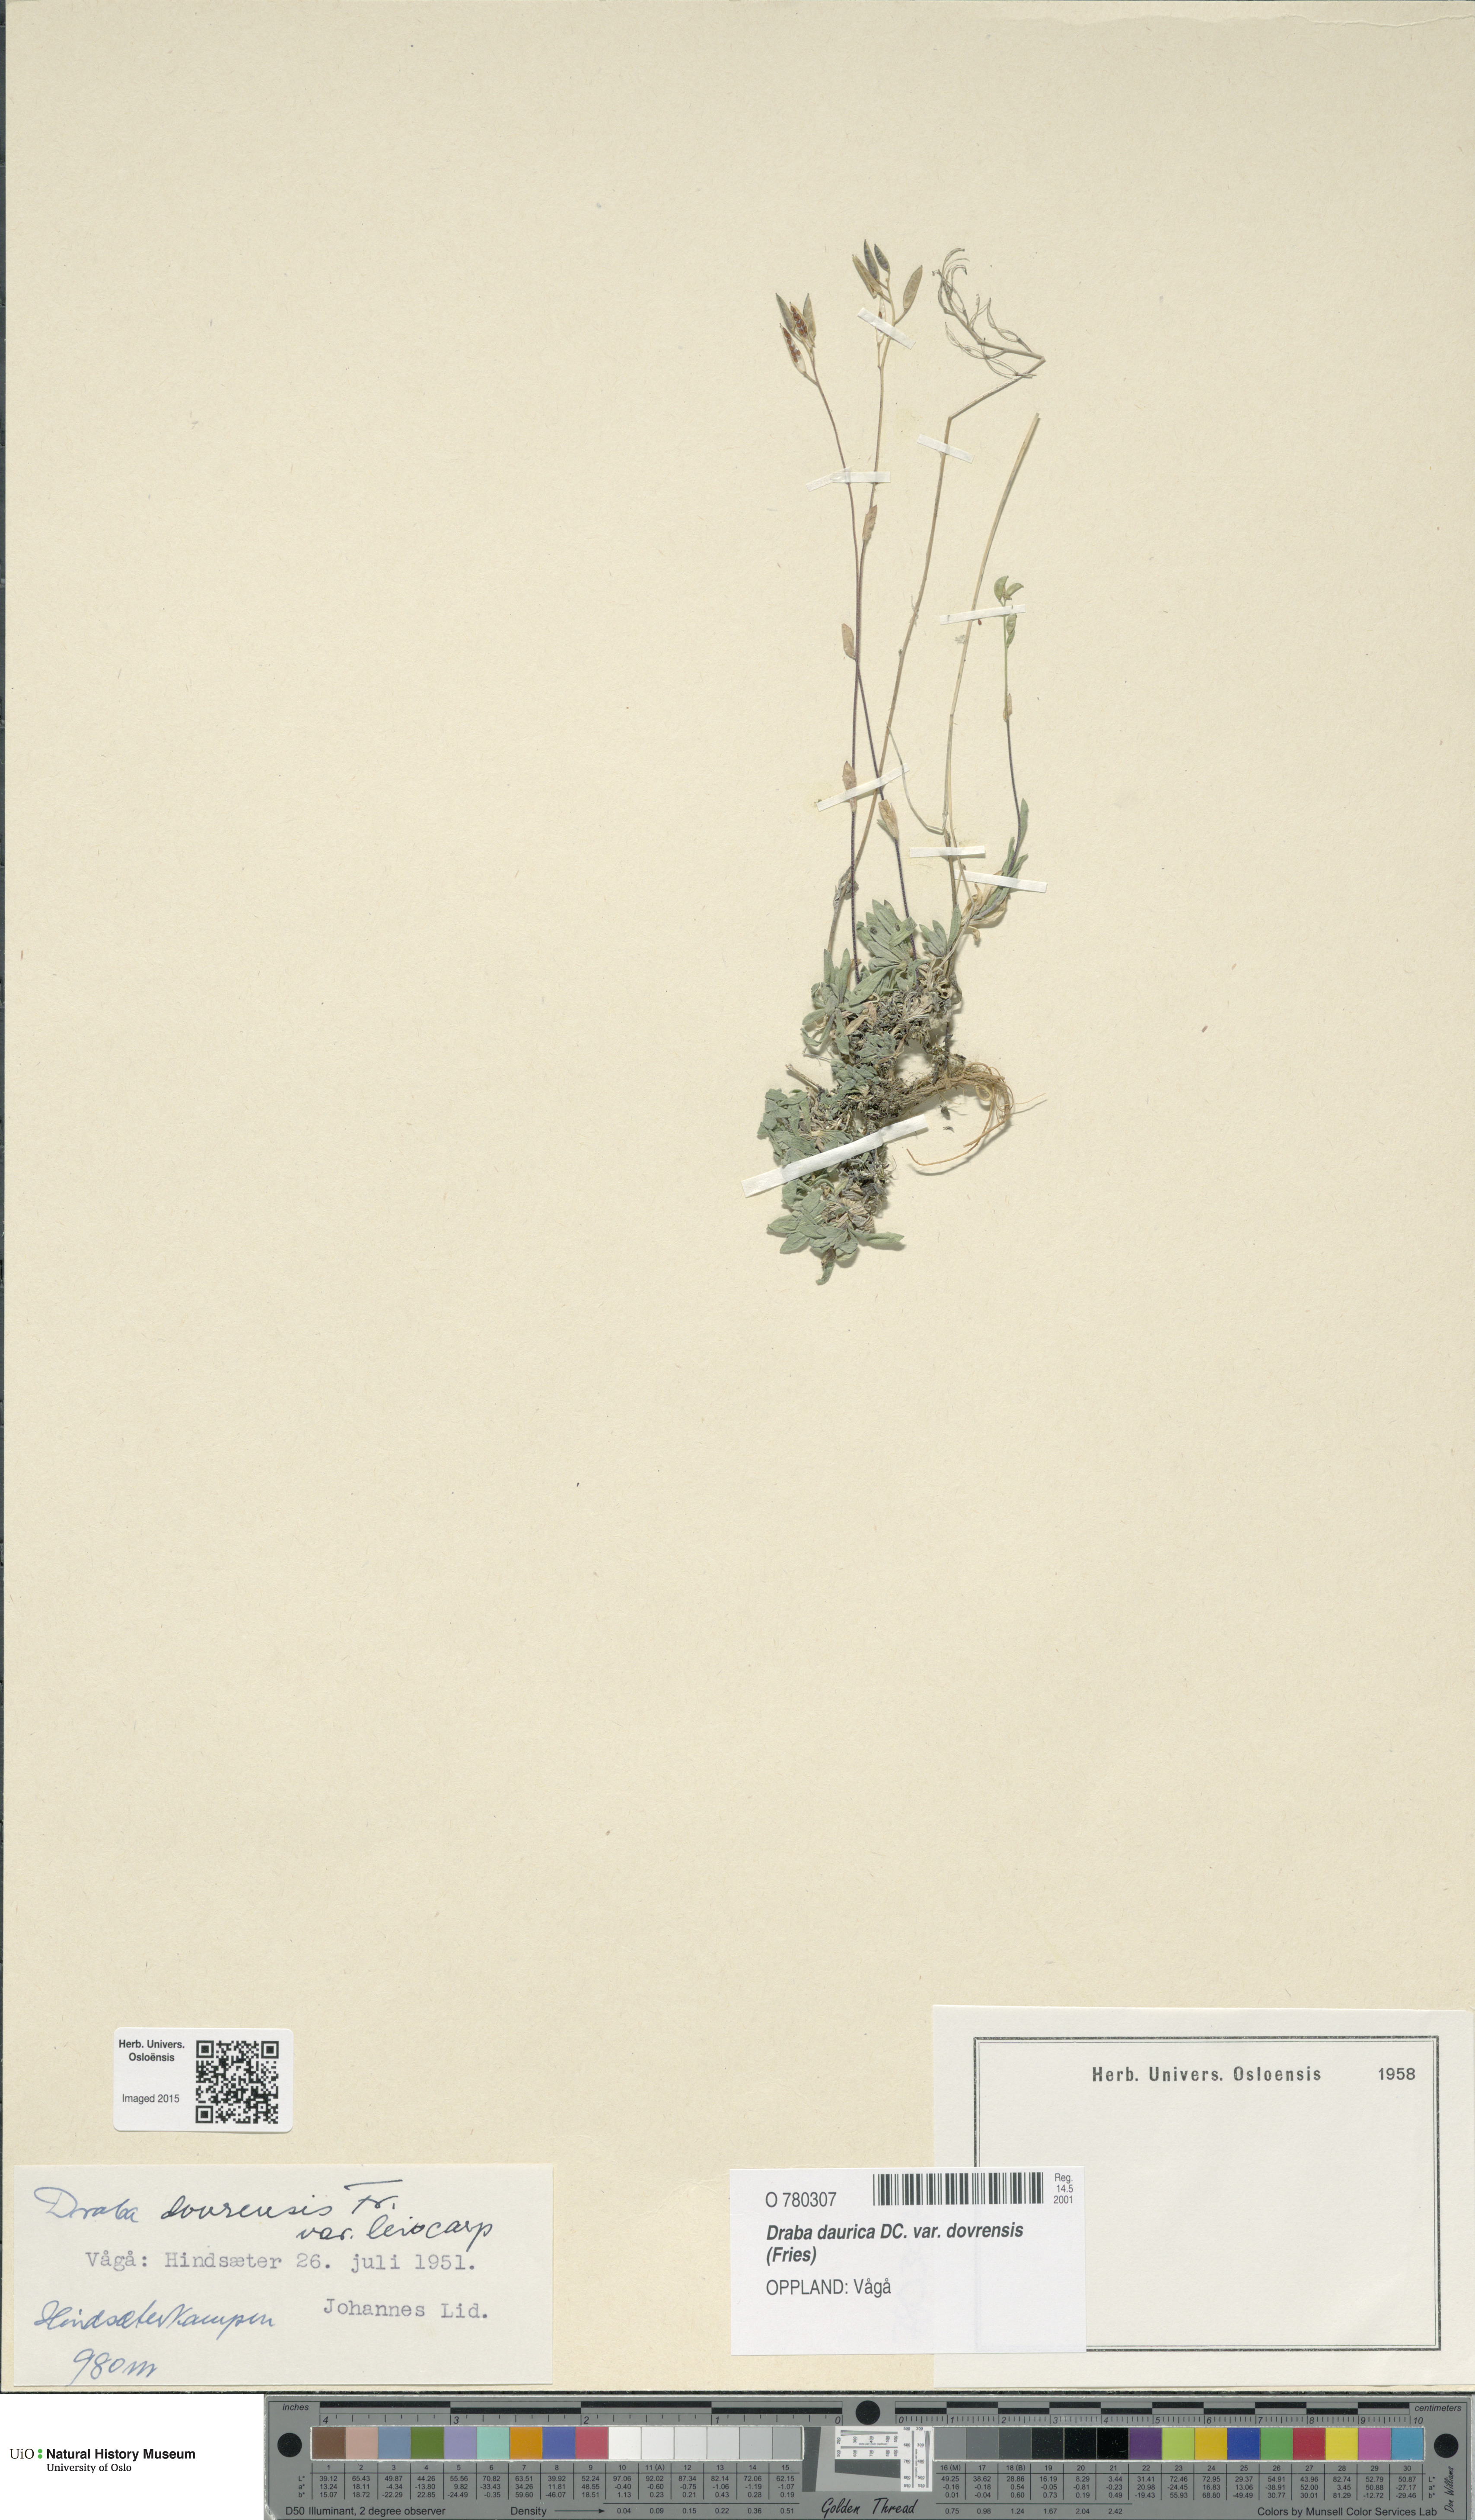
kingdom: Plantae
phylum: Tracheophyta
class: Magnoliopsida
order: Brassicales
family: Brassicaceae
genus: Draba
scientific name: Draba glabella
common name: Glaucous draba
